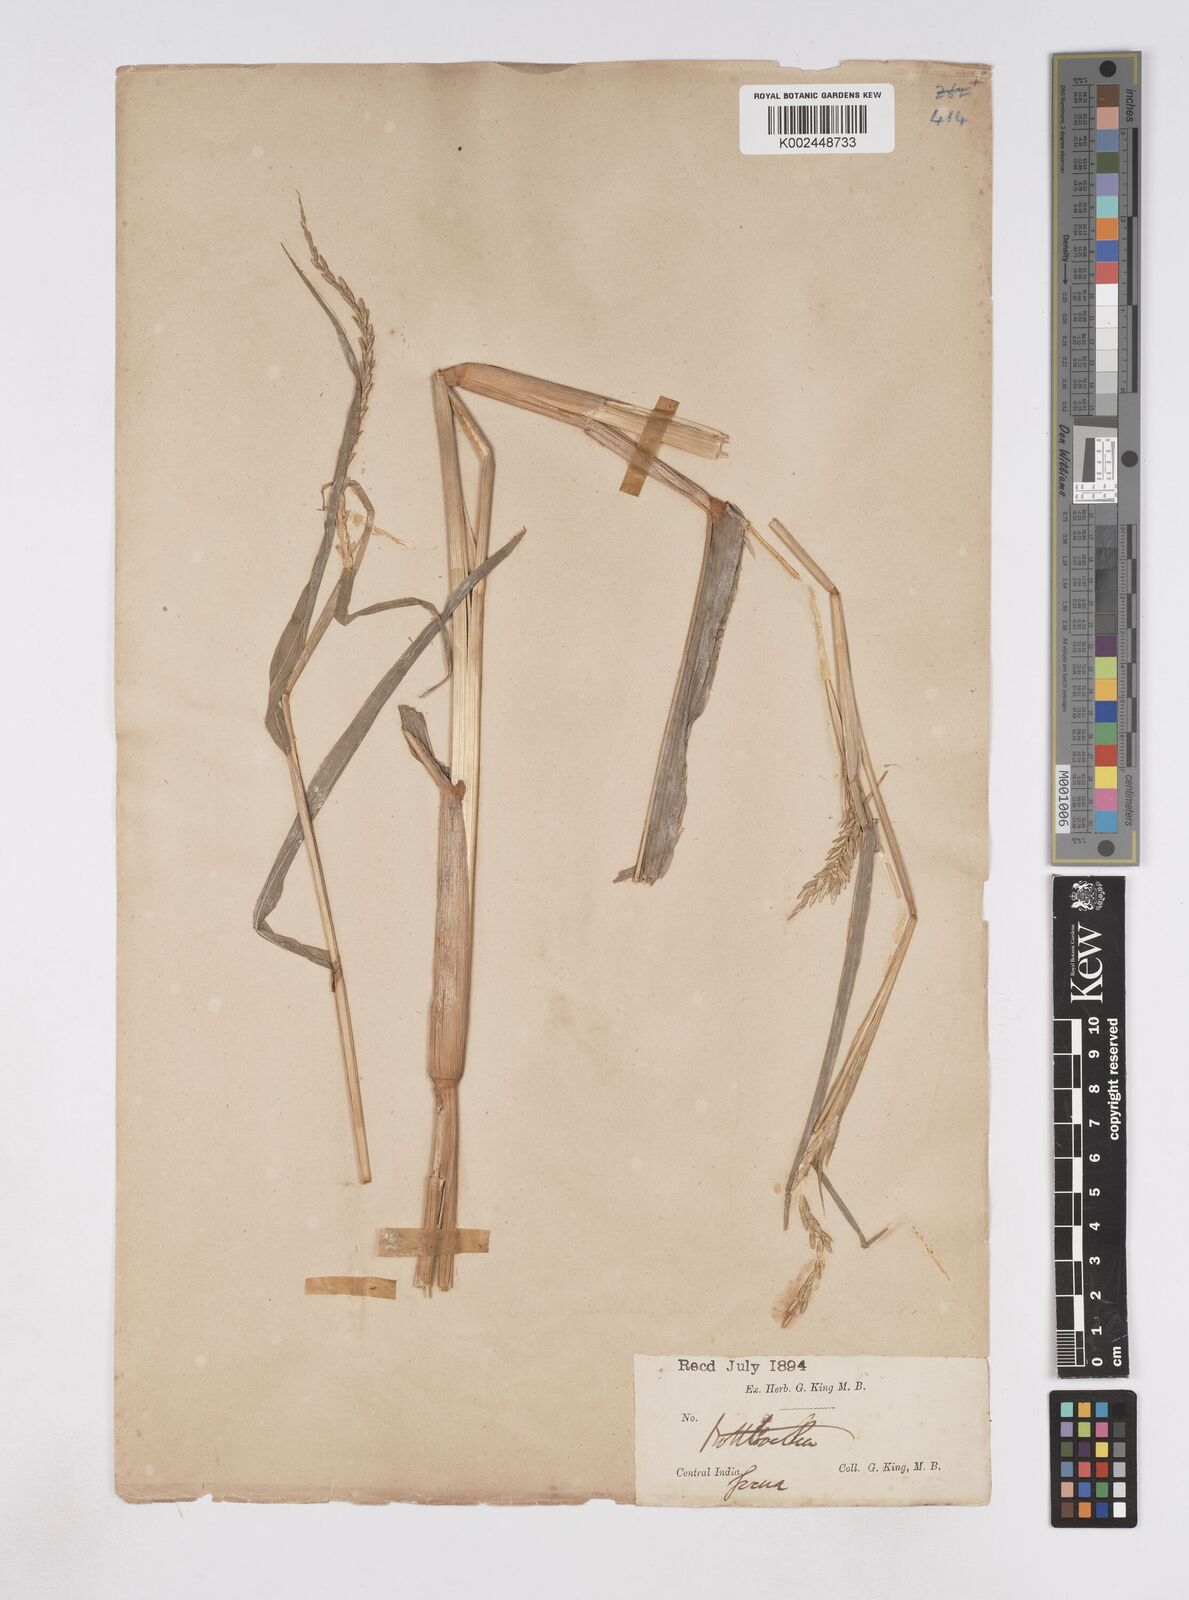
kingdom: Plantae
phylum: Tracheophyta
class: Liliopsida
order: Poales
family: Poaceae
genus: Phacelurus
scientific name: Phacelurus speciosus
